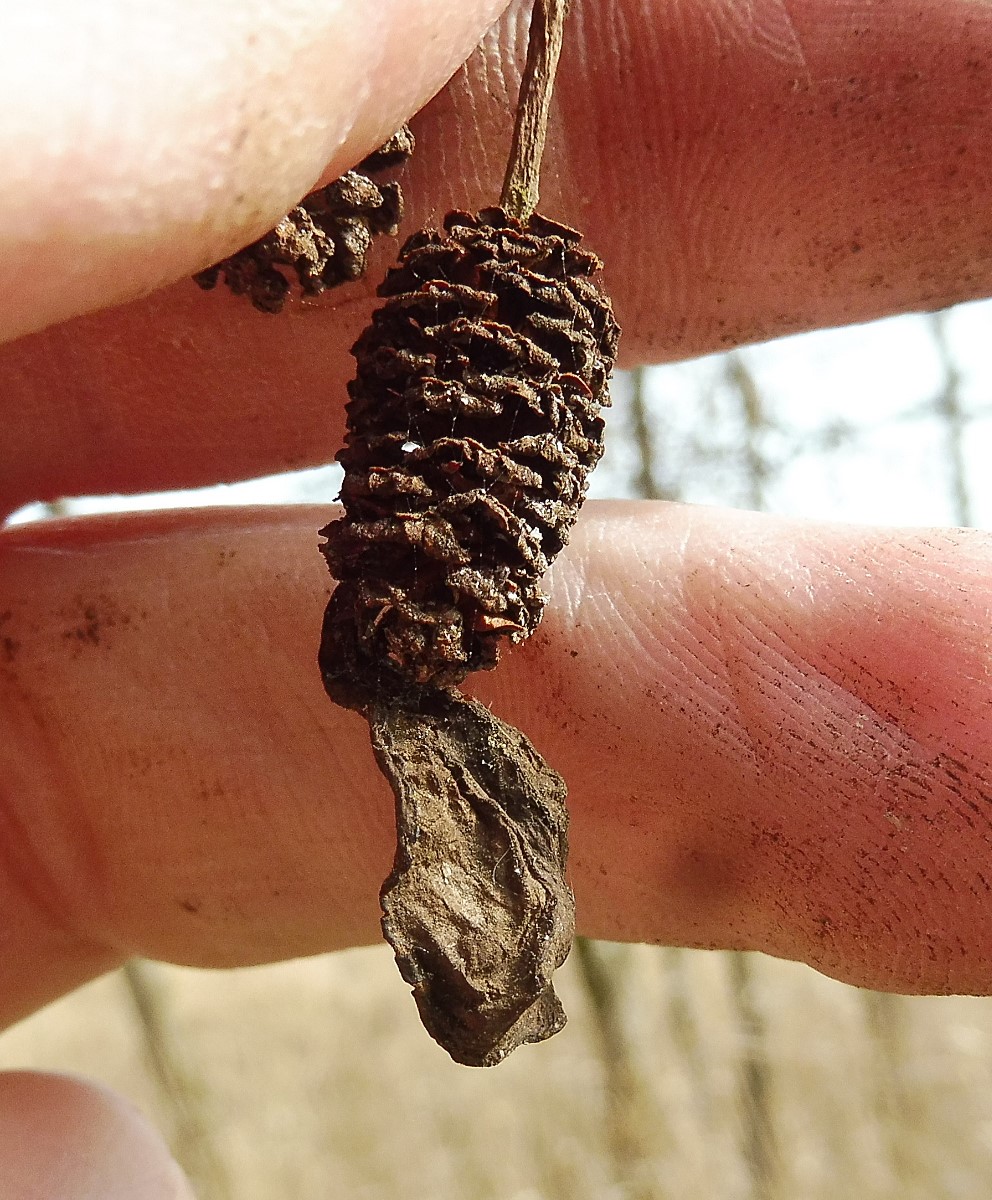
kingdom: Fungi
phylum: Ascomycota
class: Taphrinomycetes
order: Taphrinales
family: Taphrinaceae
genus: Taphrina
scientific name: Taphrina alni
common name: Alder tongue
